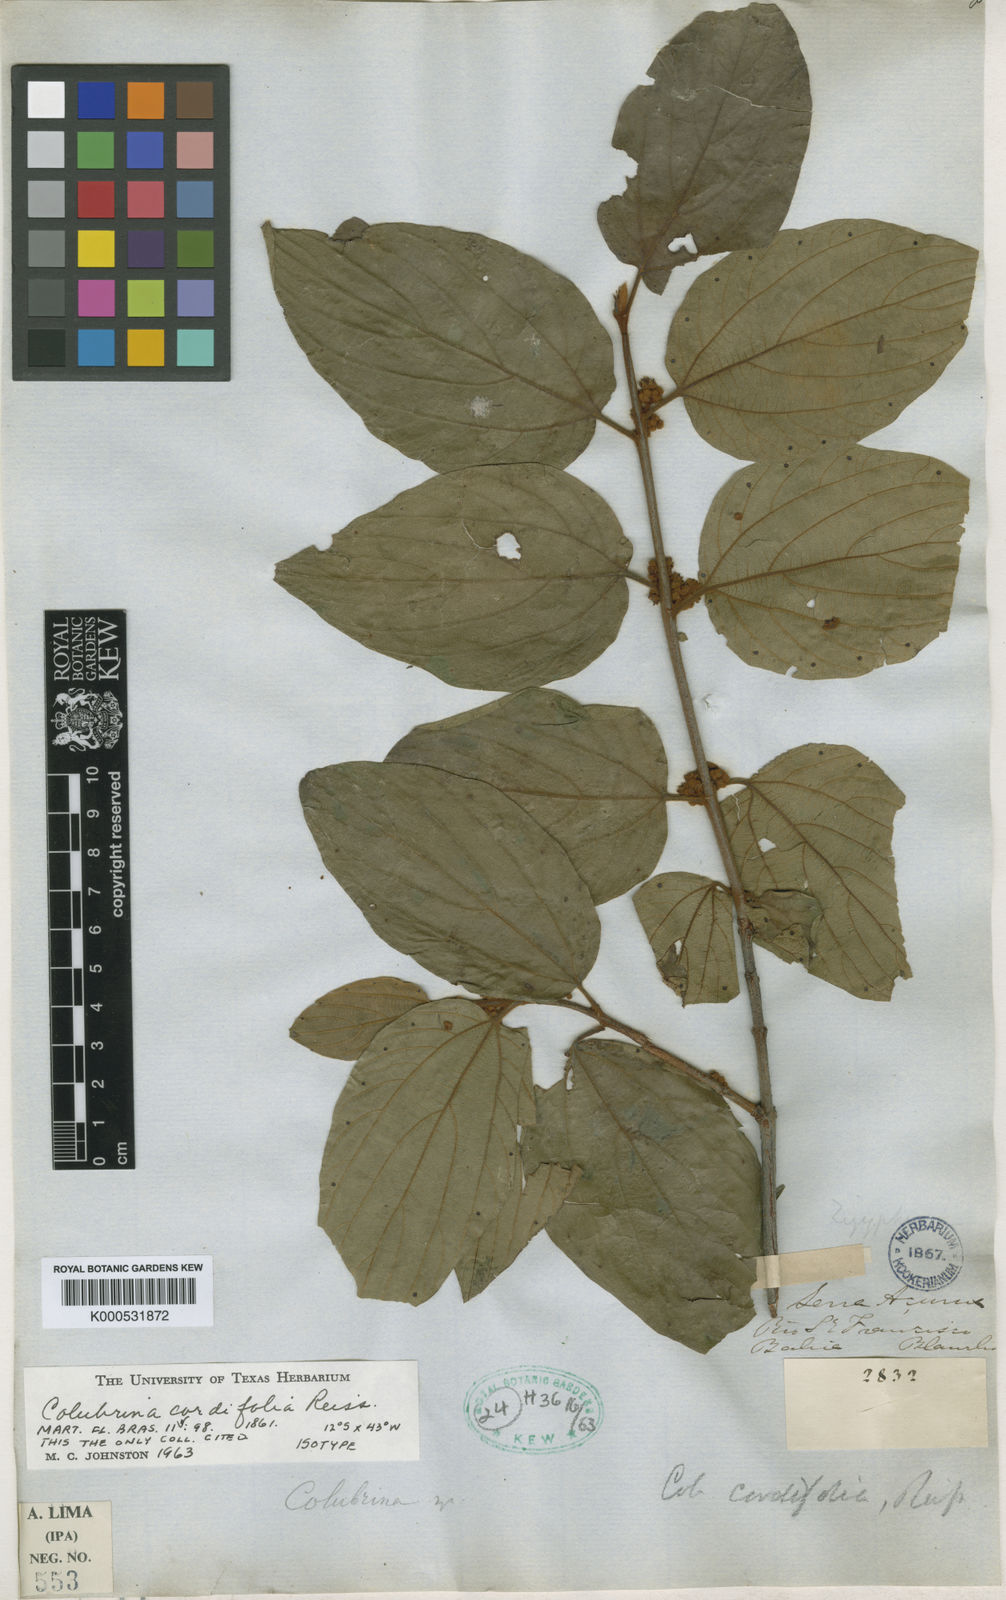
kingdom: Plantae
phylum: Tracheophyta
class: Magnoliopsida
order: Rosales
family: Rhamnaceae
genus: Colubrina
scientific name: Colubrina cordifolia
